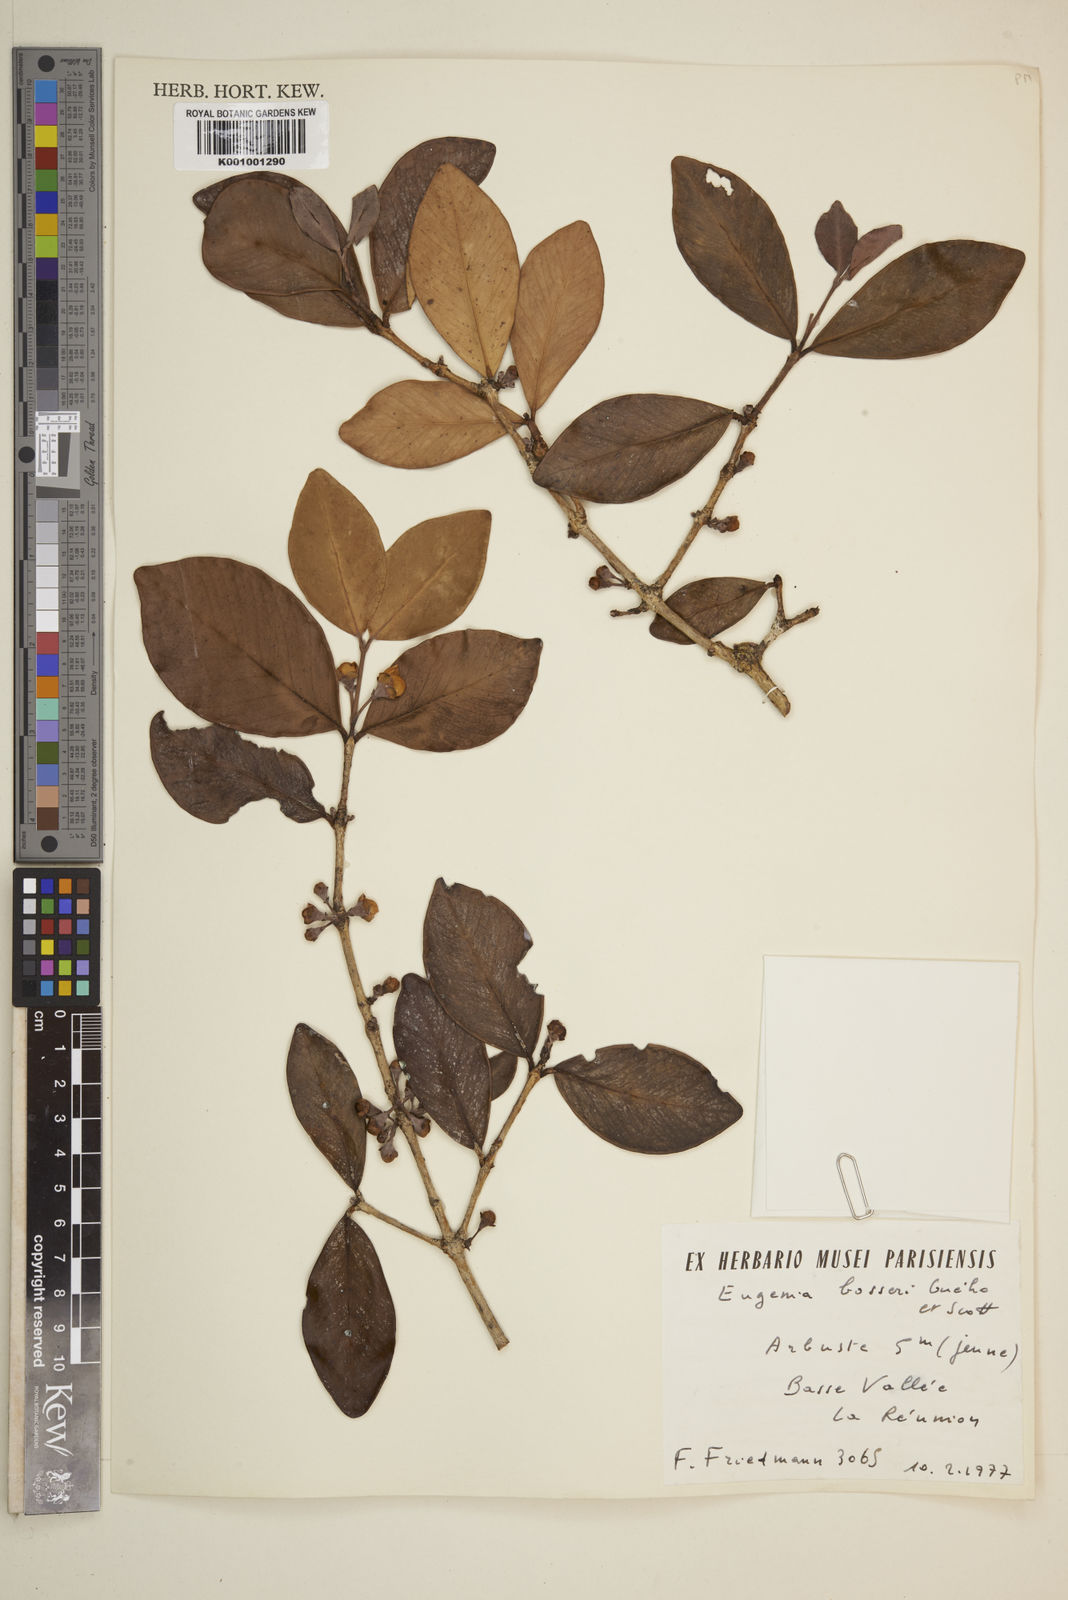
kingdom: Plantae
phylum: Tracheophyta
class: Magnoliopsida
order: Myrtales
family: Myrtaceae
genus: Eugenia
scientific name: Eugenia
